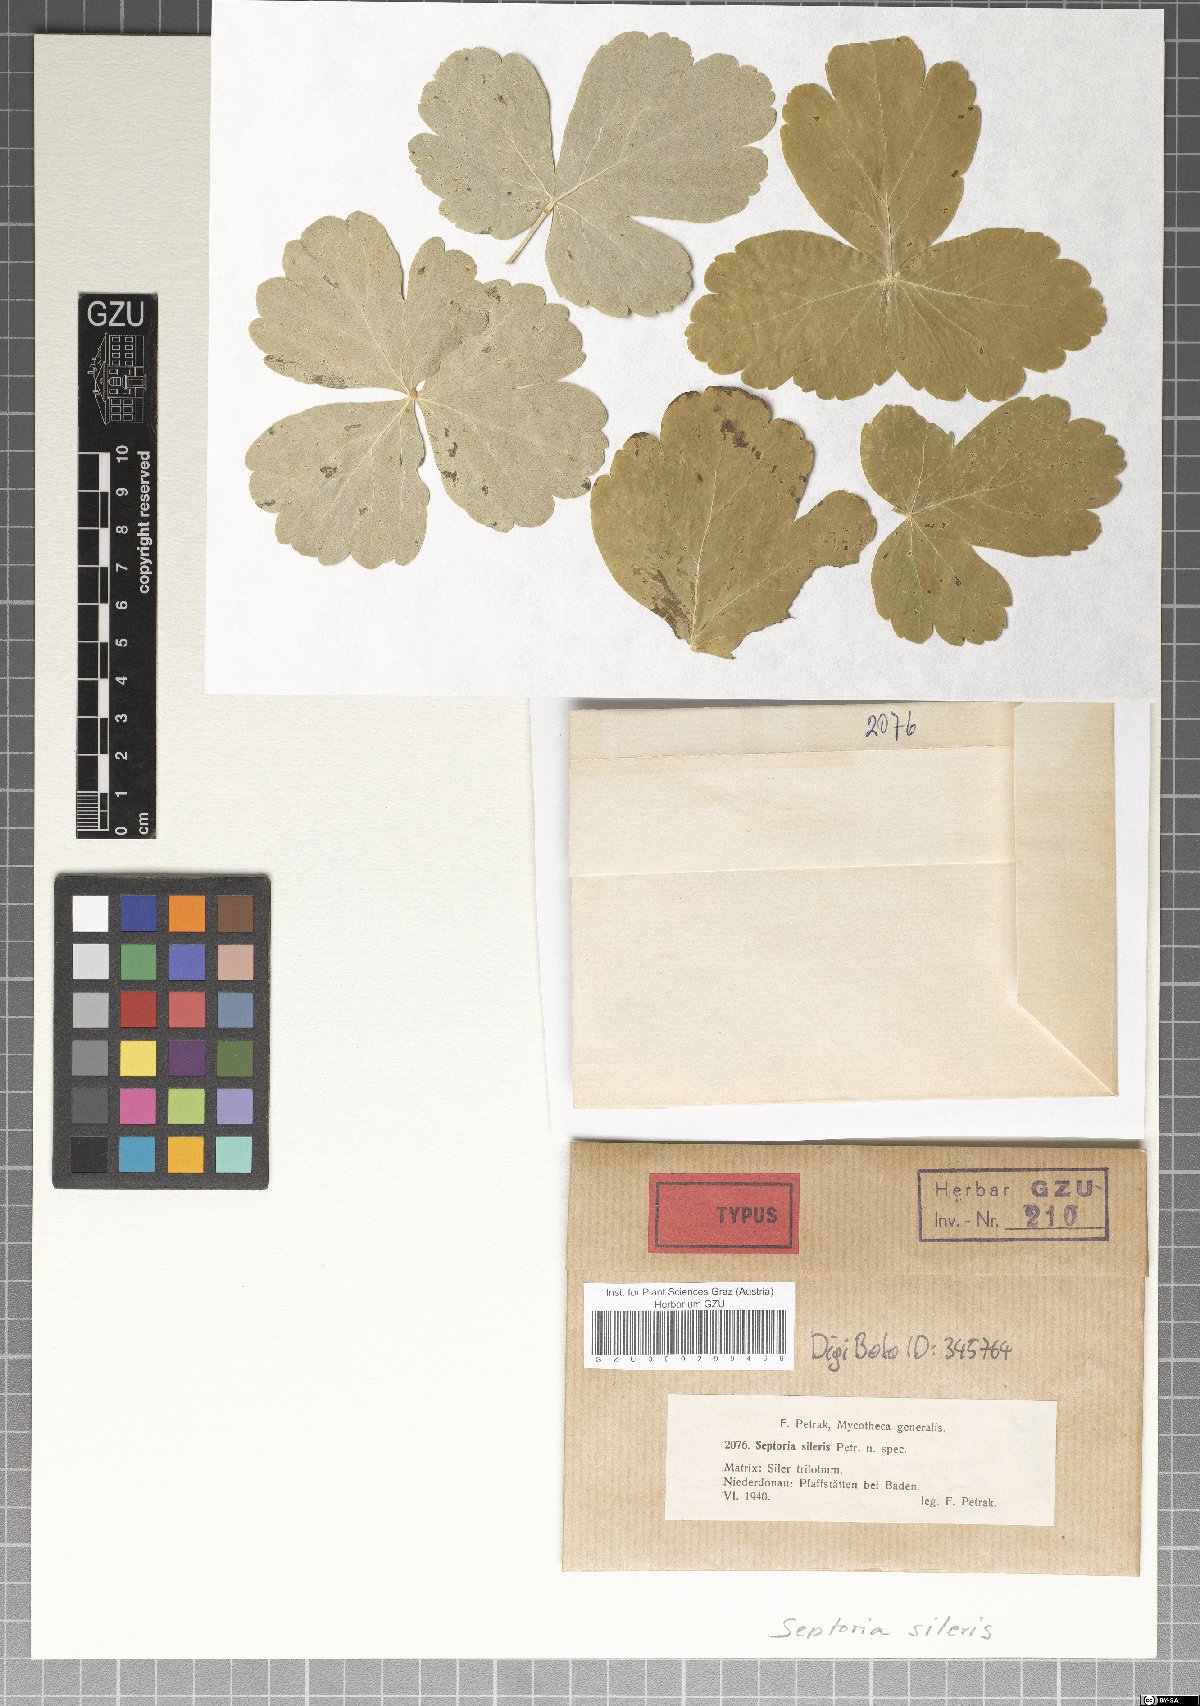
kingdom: Fungi
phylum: Ascomycota
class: Dothideomycetes
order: Mycosphaerellales
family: Mycosphaerellaceae
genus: Caryophylloseptoria
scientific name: Caryophylloseptoria silenes
